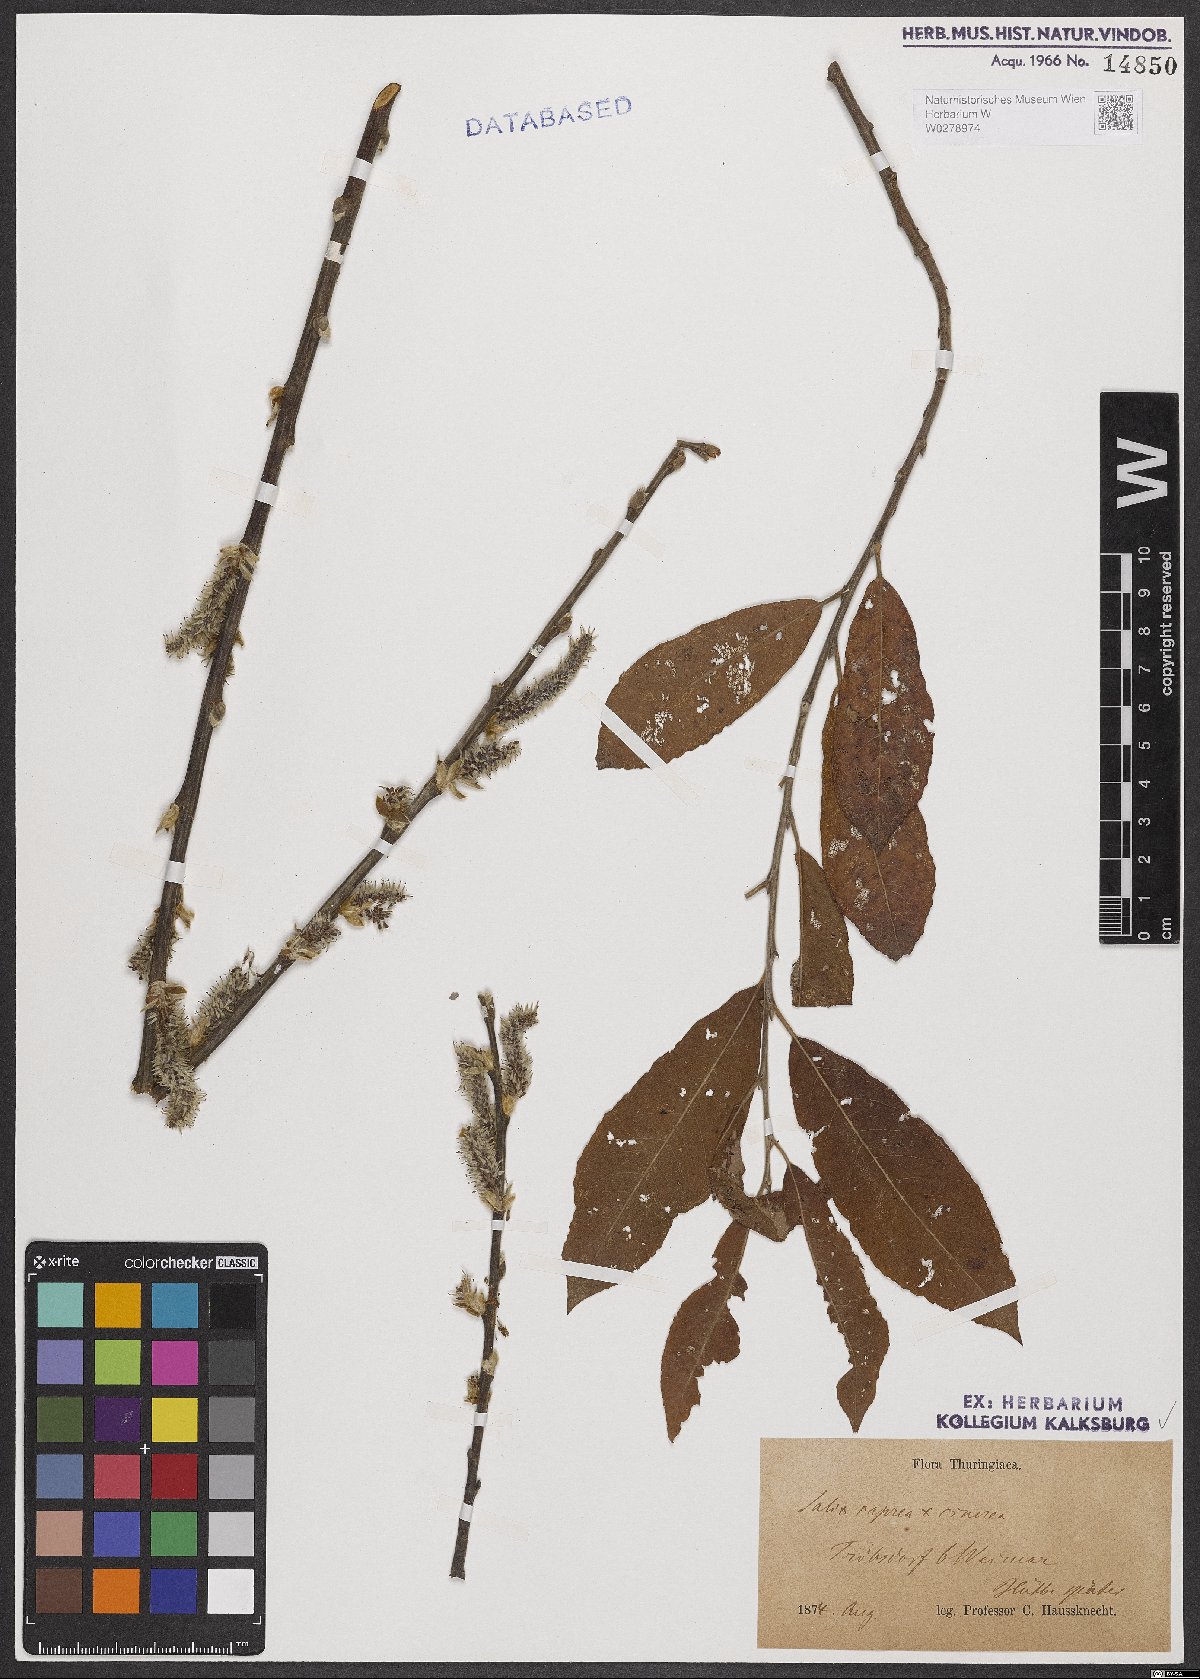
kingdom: Plantae
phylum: Tracheophyta
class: Magnoliopsida
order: Malpighiales
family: Salicaceae
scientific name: Salicaceae
